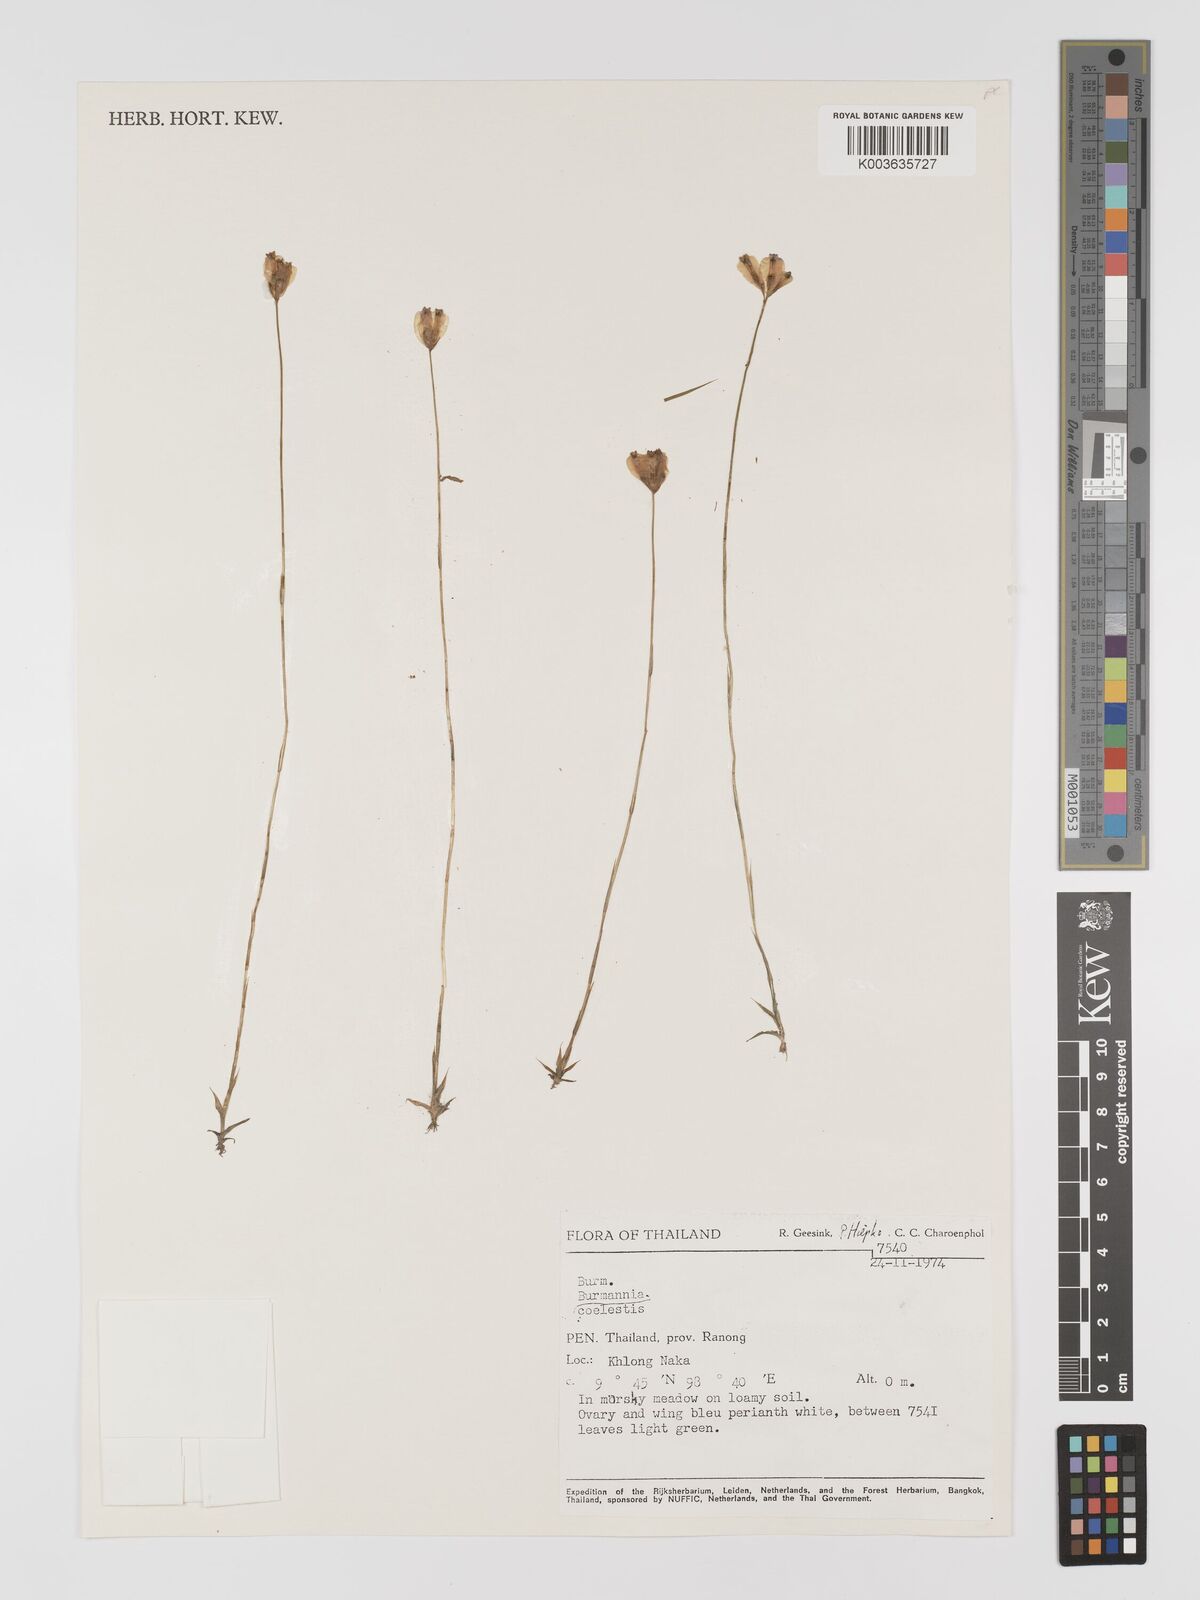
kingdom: Plantae
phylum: Tracheophyta
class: Liliopsida
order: Dioscoreales
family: Burmanniaceae
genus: Burmannia
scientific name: Burmannia coelestis
